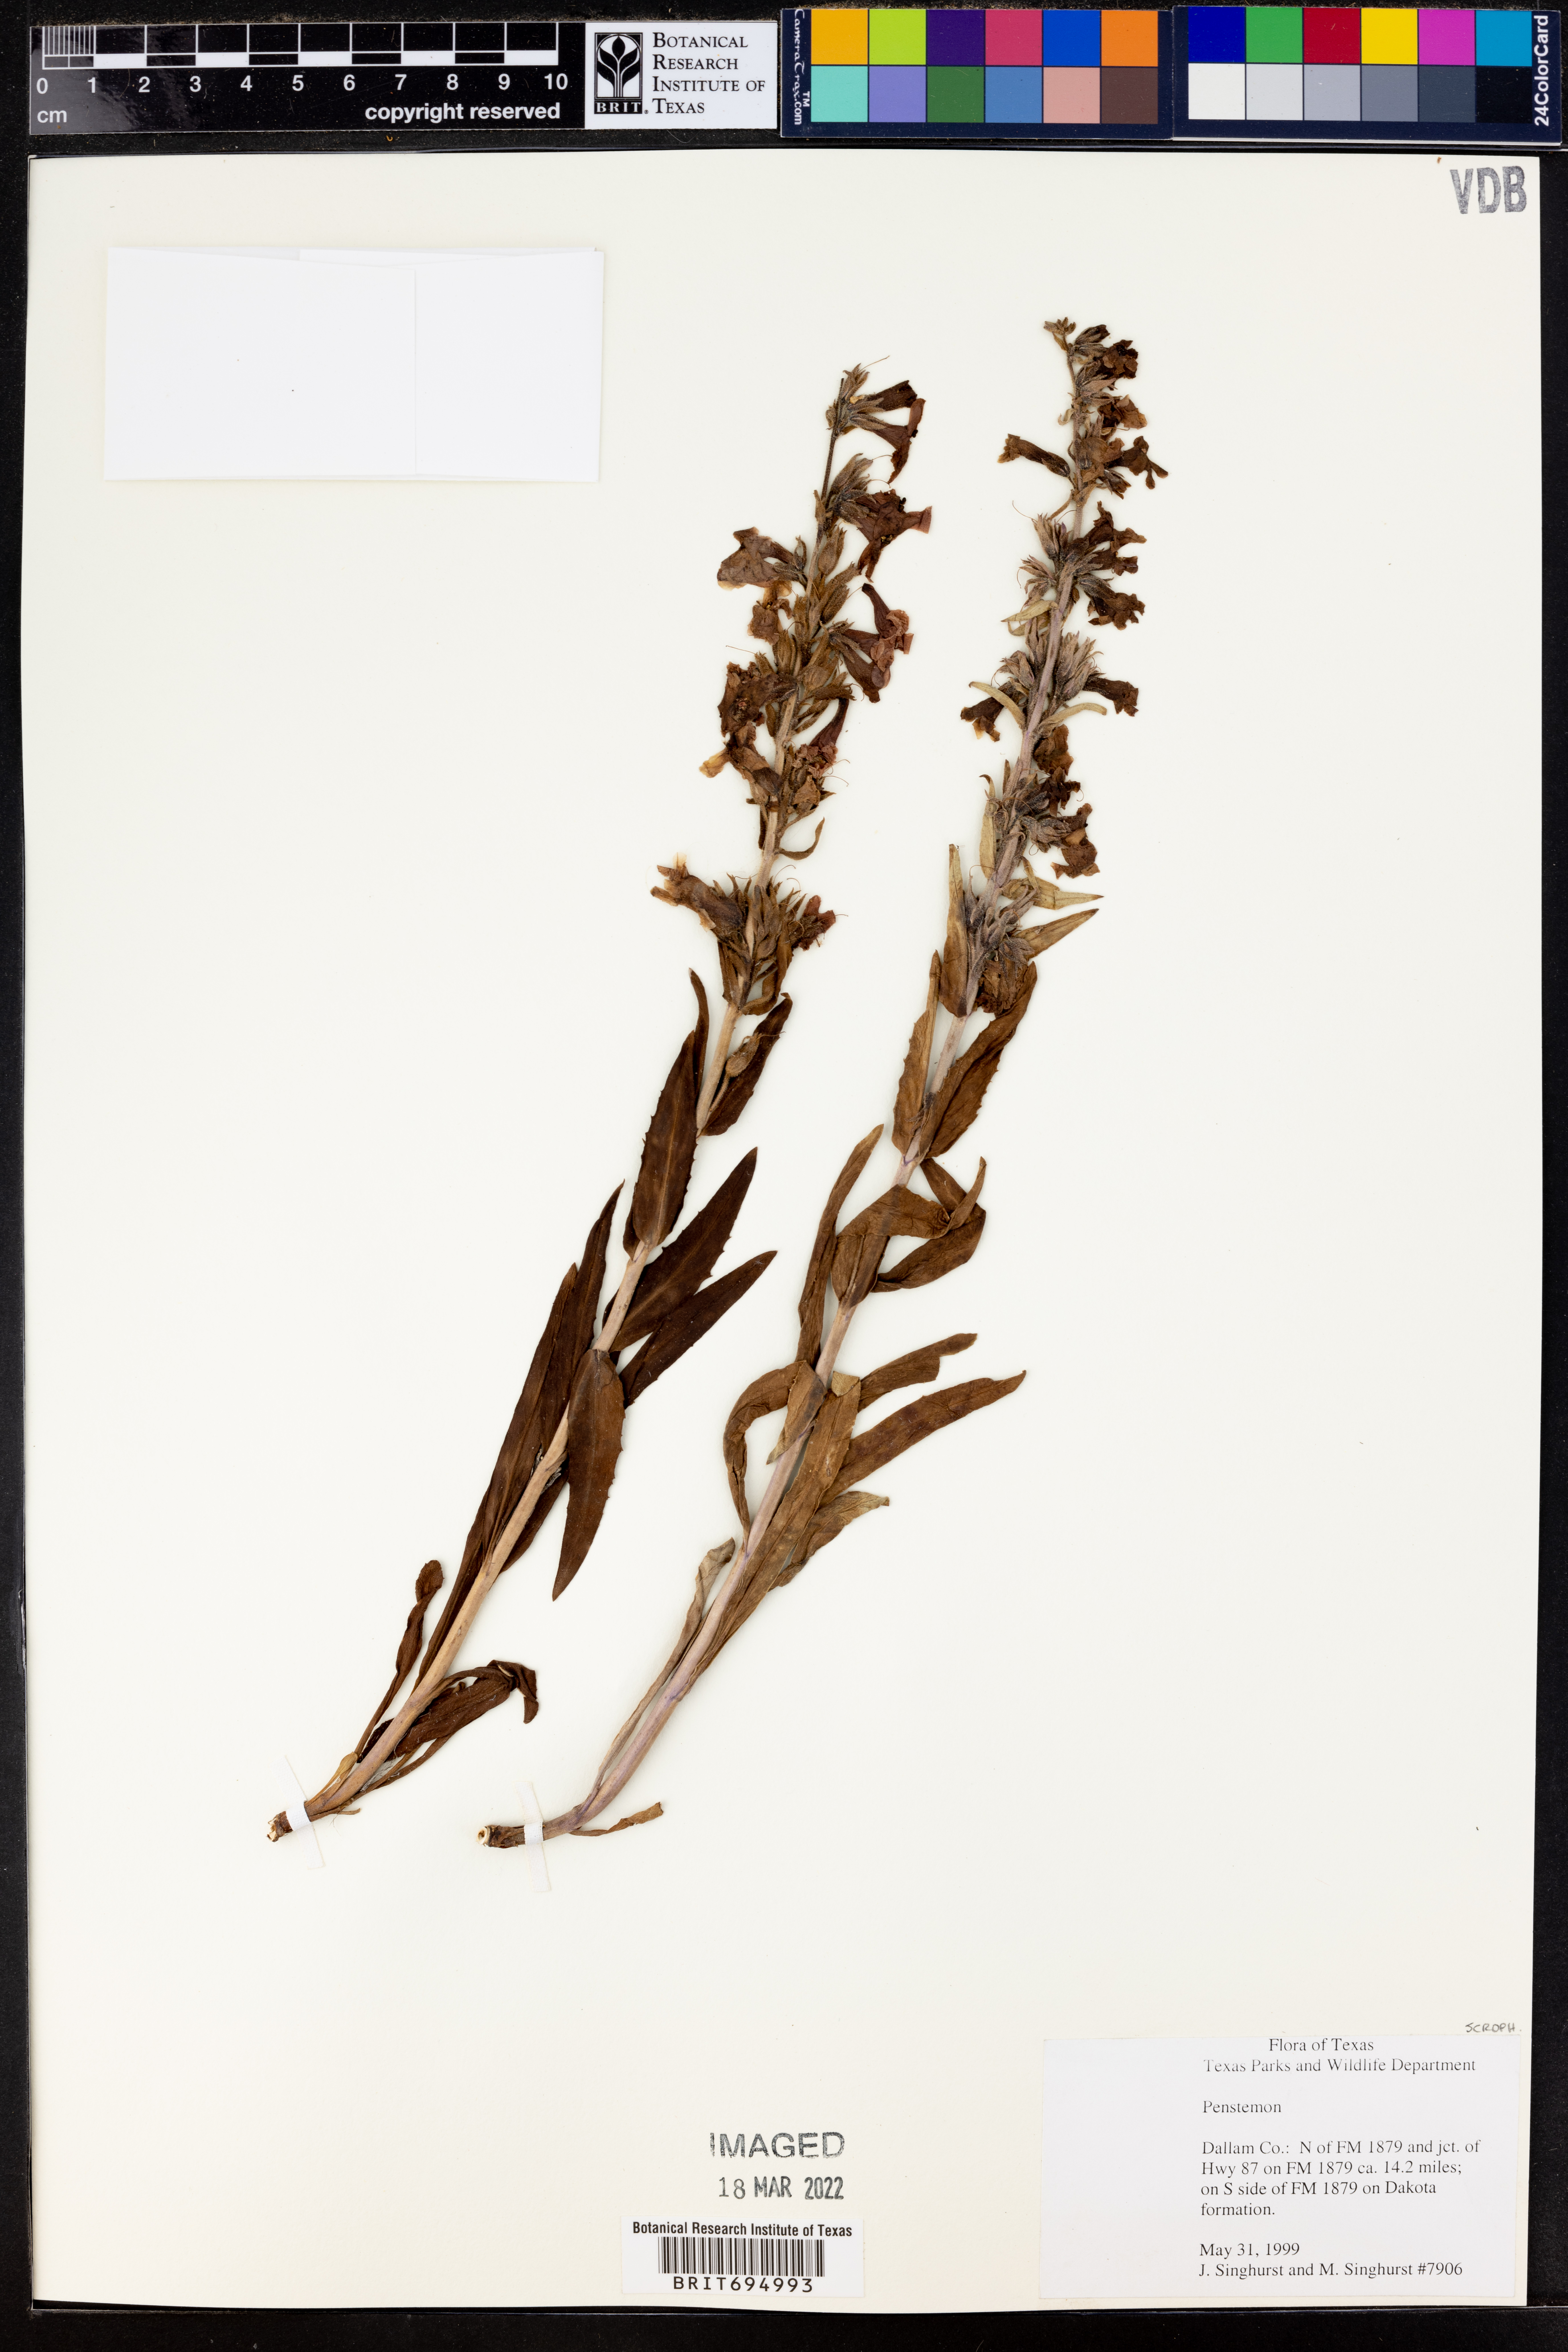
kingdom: Plantae
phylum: Tracheophyta
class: Magnoliopsida
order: Lamiales
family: Plantaginaceae
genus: Penstemon
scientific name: Penstemon
